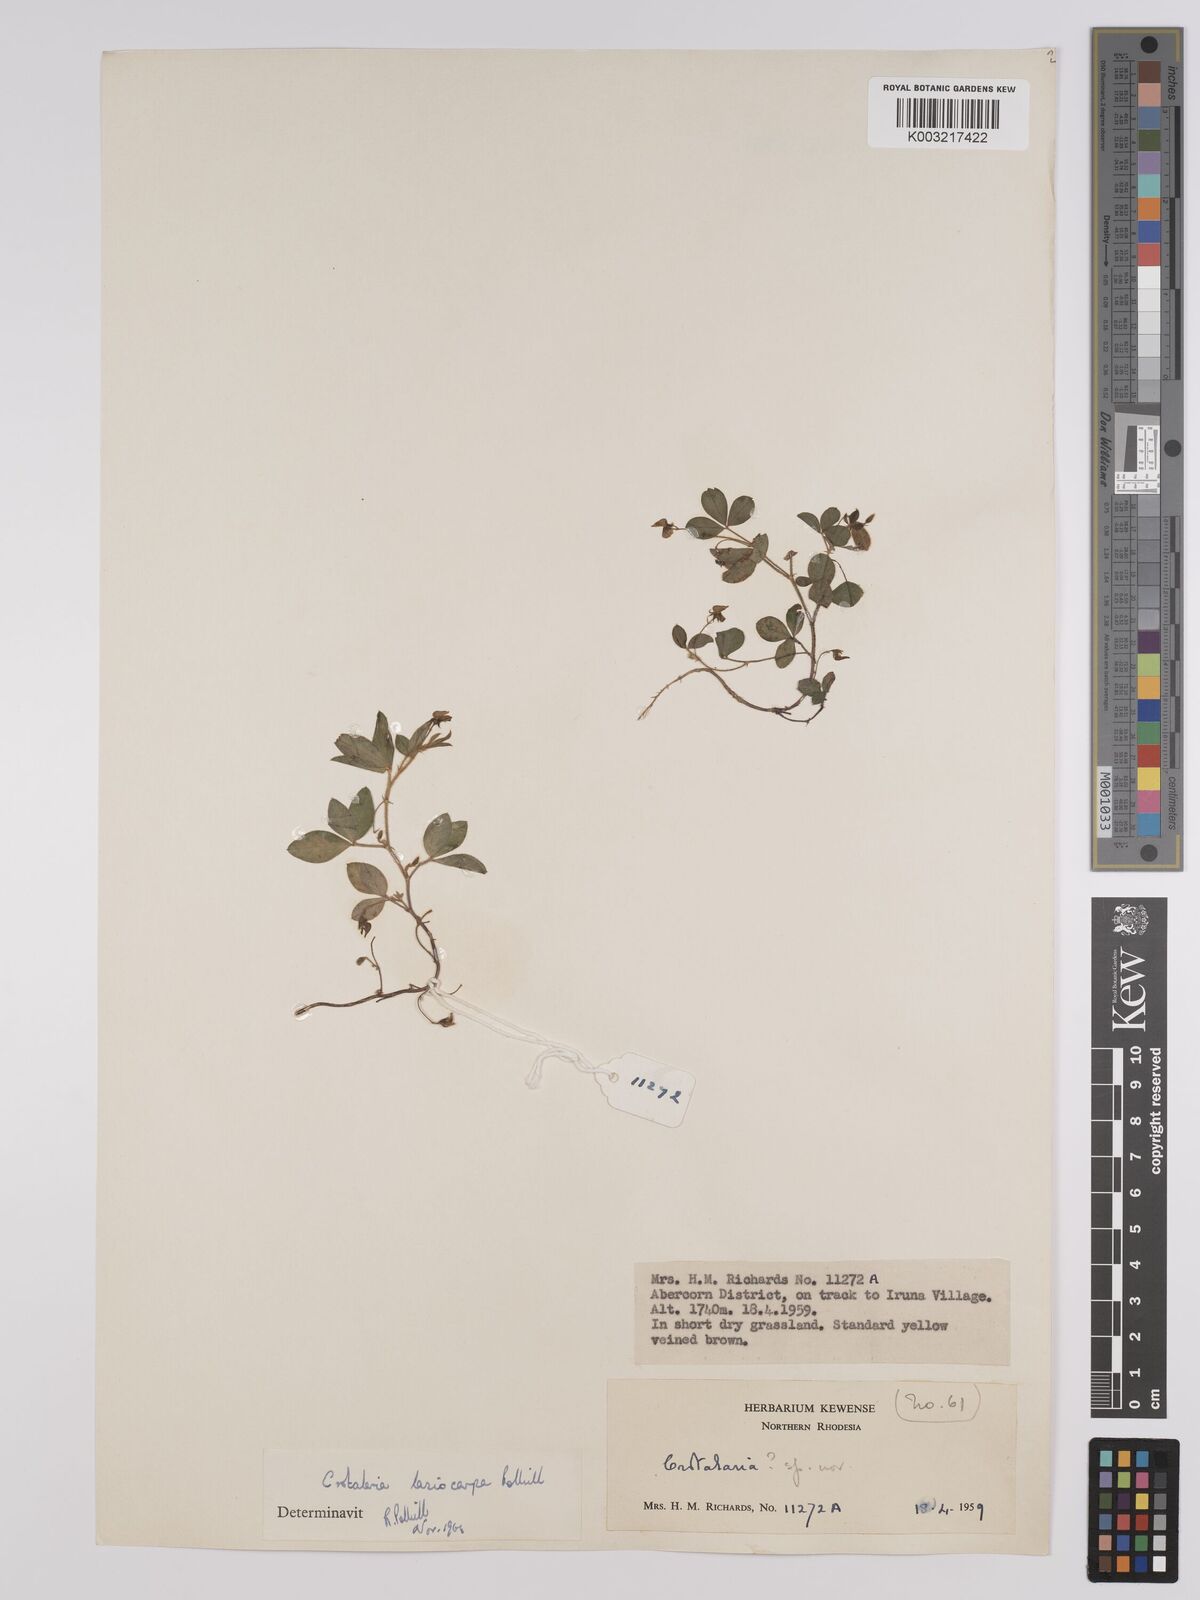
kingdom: Plantae
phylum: Tracheophyta
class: Magnoliopsida
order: Fabales
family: Fabaceae
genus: Crotalaria
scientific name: Crotalaria lasiocarpa
